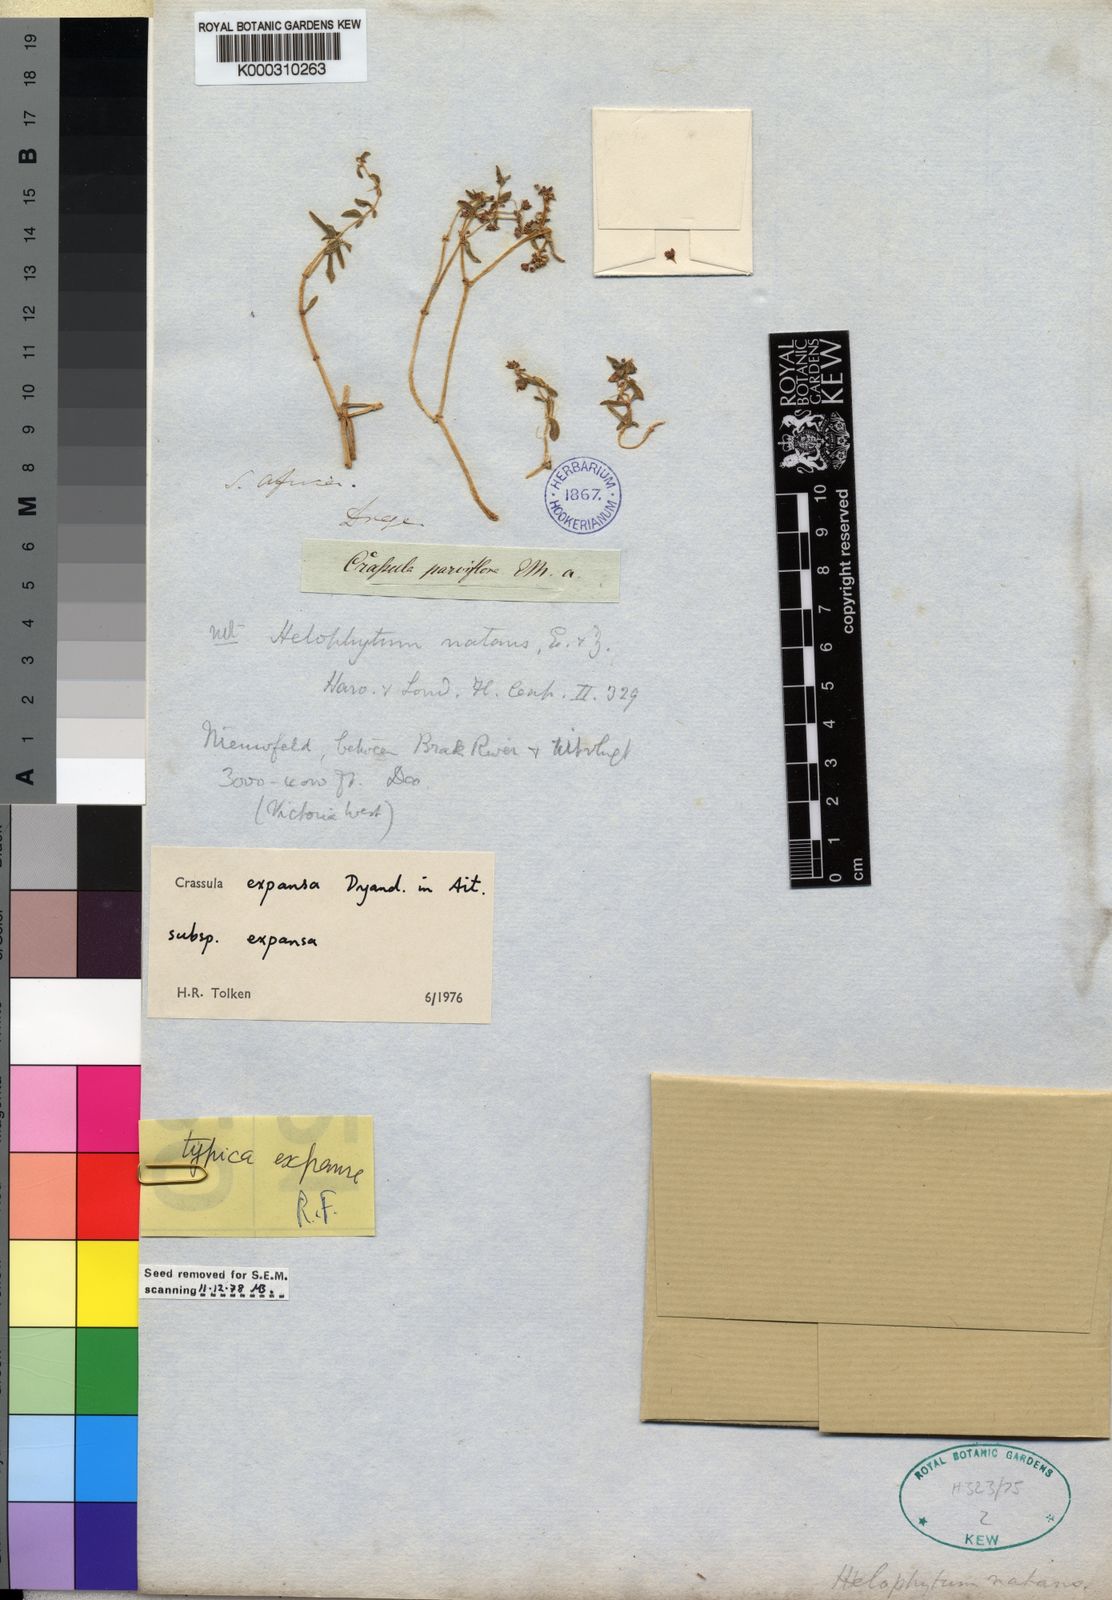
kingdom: Plantae
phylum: Tracheophyta
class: Magnoliopsida
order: Saxifragales
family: Crassulaceae
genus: Crassula
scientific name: Crassula
